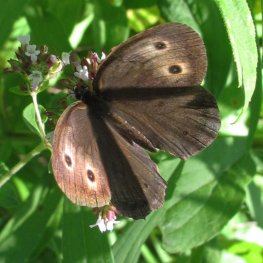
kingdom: Animalia
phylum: Arthropoda
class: Insecta
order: Lepidoptera
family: Nymphalidae
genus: Cercyonis
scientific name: Cercyonis pegala
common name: Common Wood-Nymph
